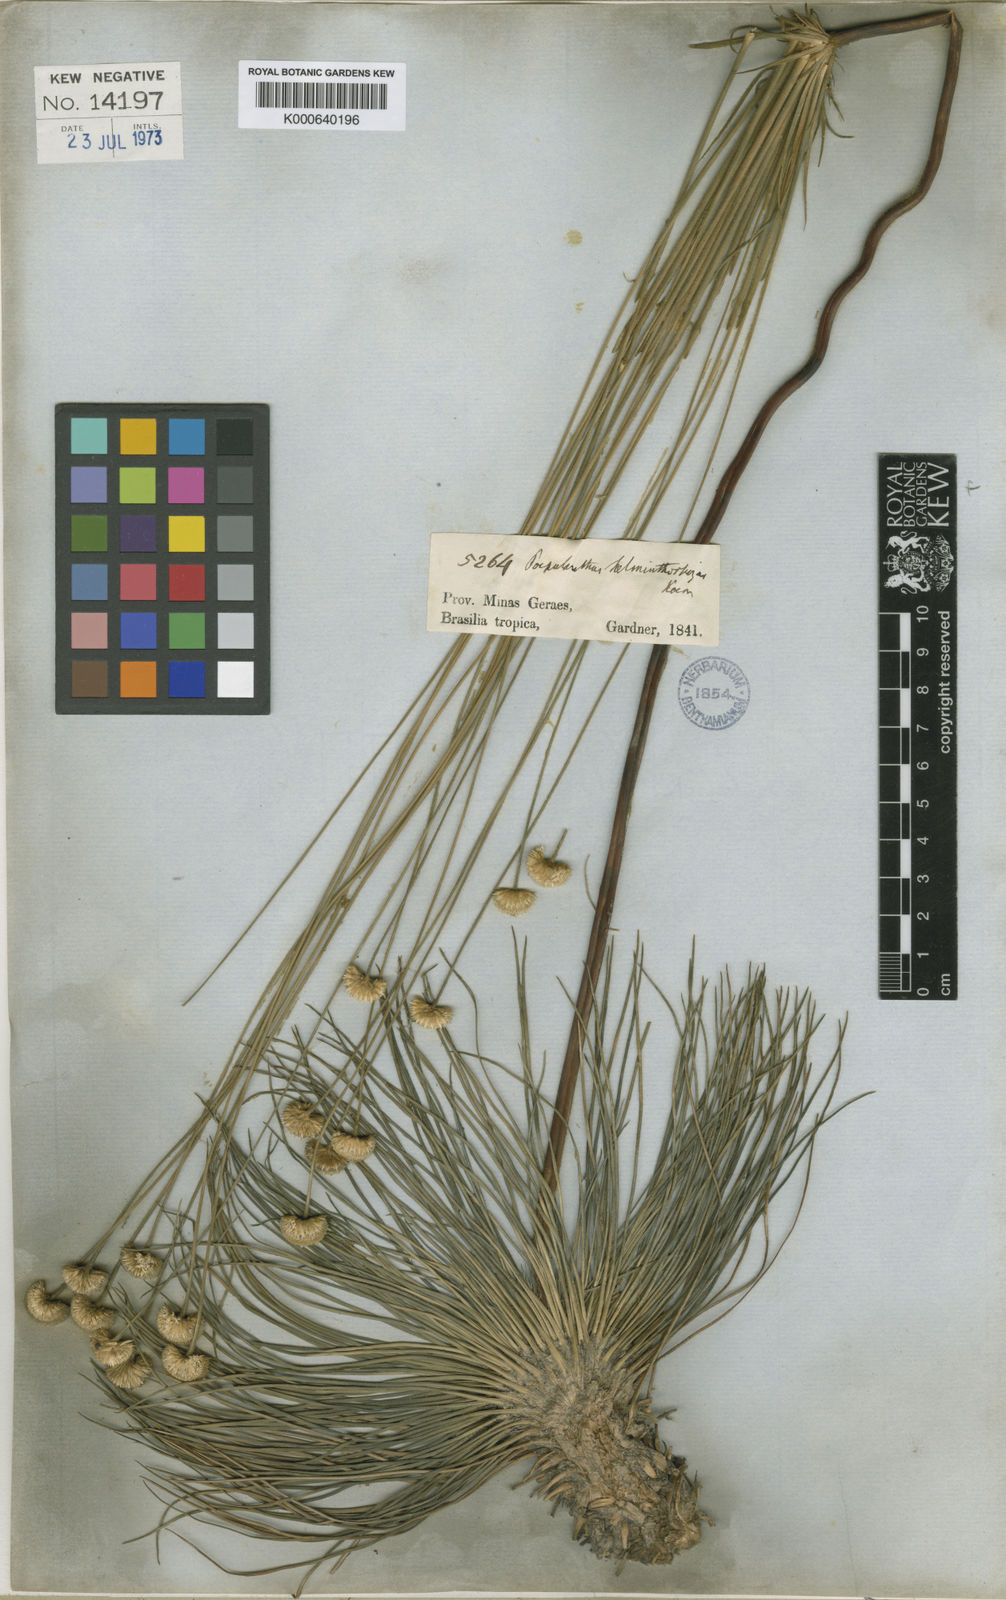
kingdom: Plantae
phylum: Tracheophyta
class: Liliopsida
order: Poales
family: Eriocaulaceae
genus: Syngonanthus
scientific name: Syngonanthus
